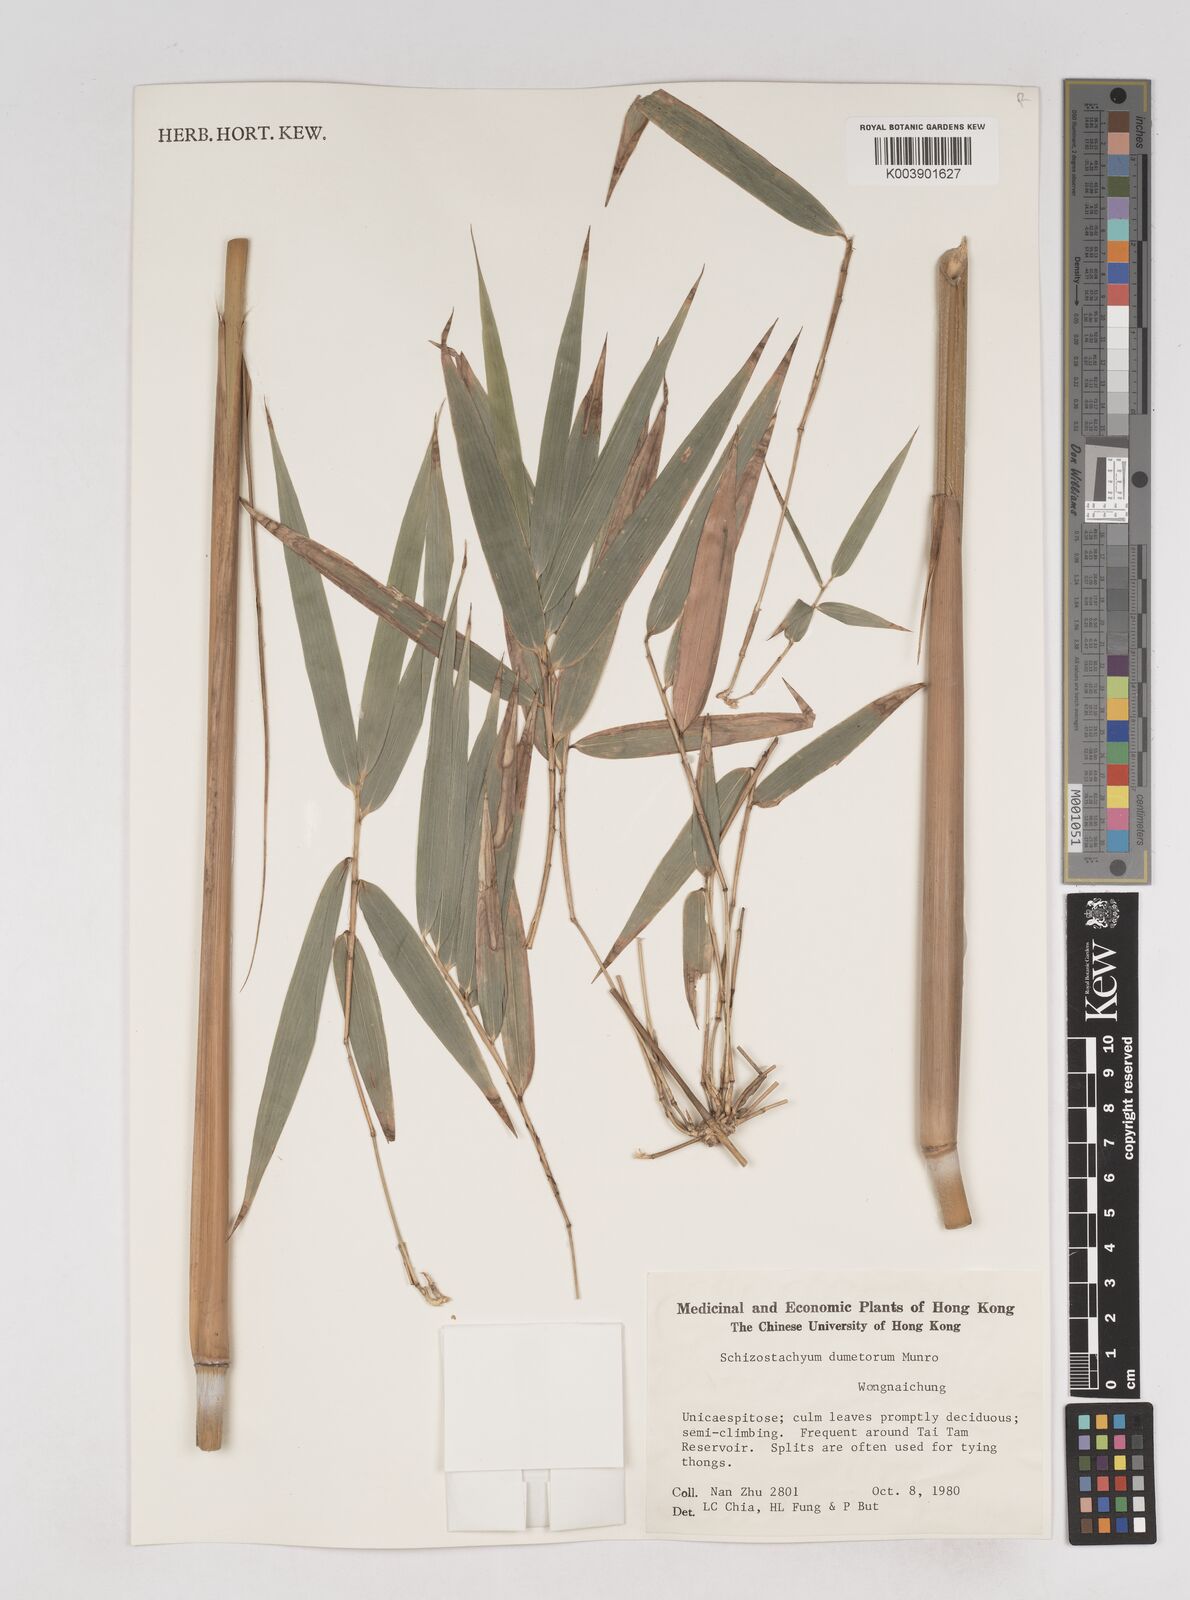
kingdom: Plantae
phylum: Tracheophyta
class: Liliopsida
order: Poales
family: Poaceae
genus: Schizostachyum
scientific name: Schizostachyum dumetorum
